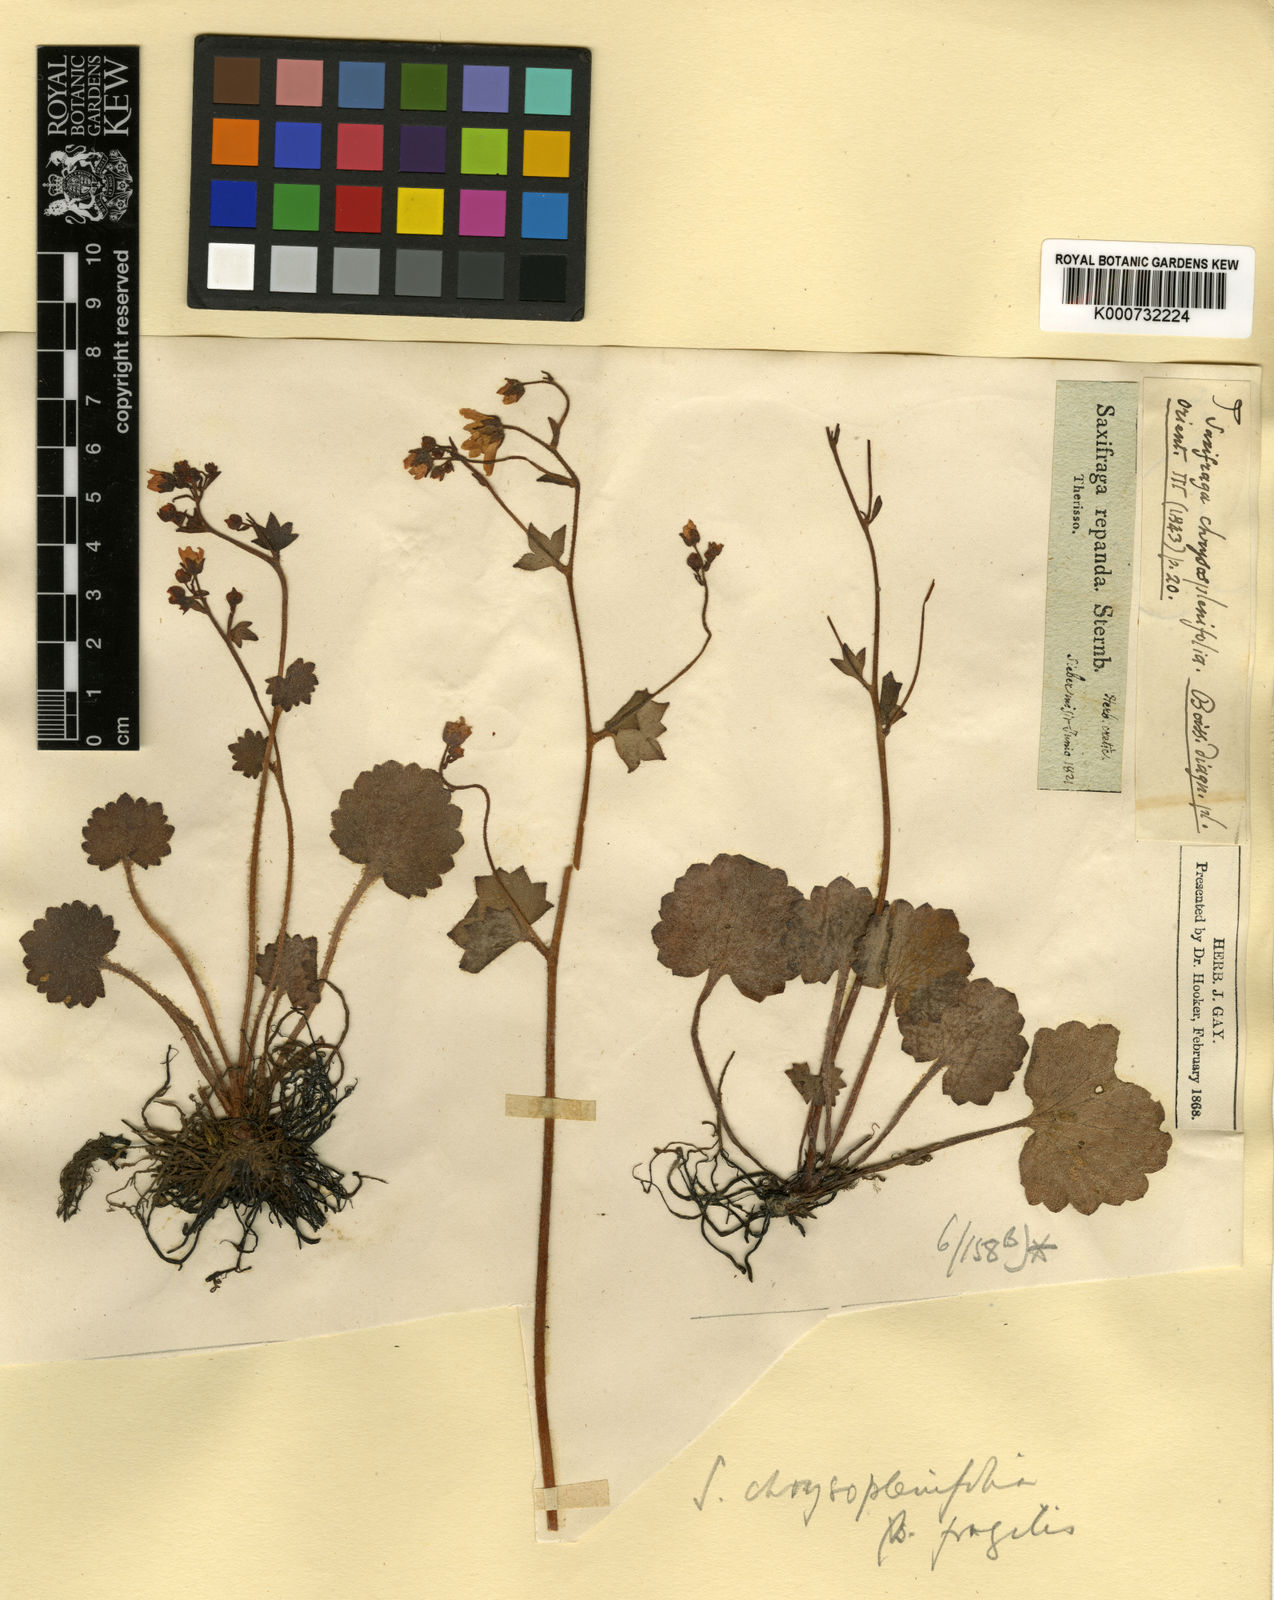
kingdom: Plantae
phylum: Tracheophyta
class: Magnoliopsida
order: Saxifragales
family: Saxifragaceae
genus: Saxifraga
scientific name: Saxifraga rotundifolia
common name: Round-leaved saxifrage
